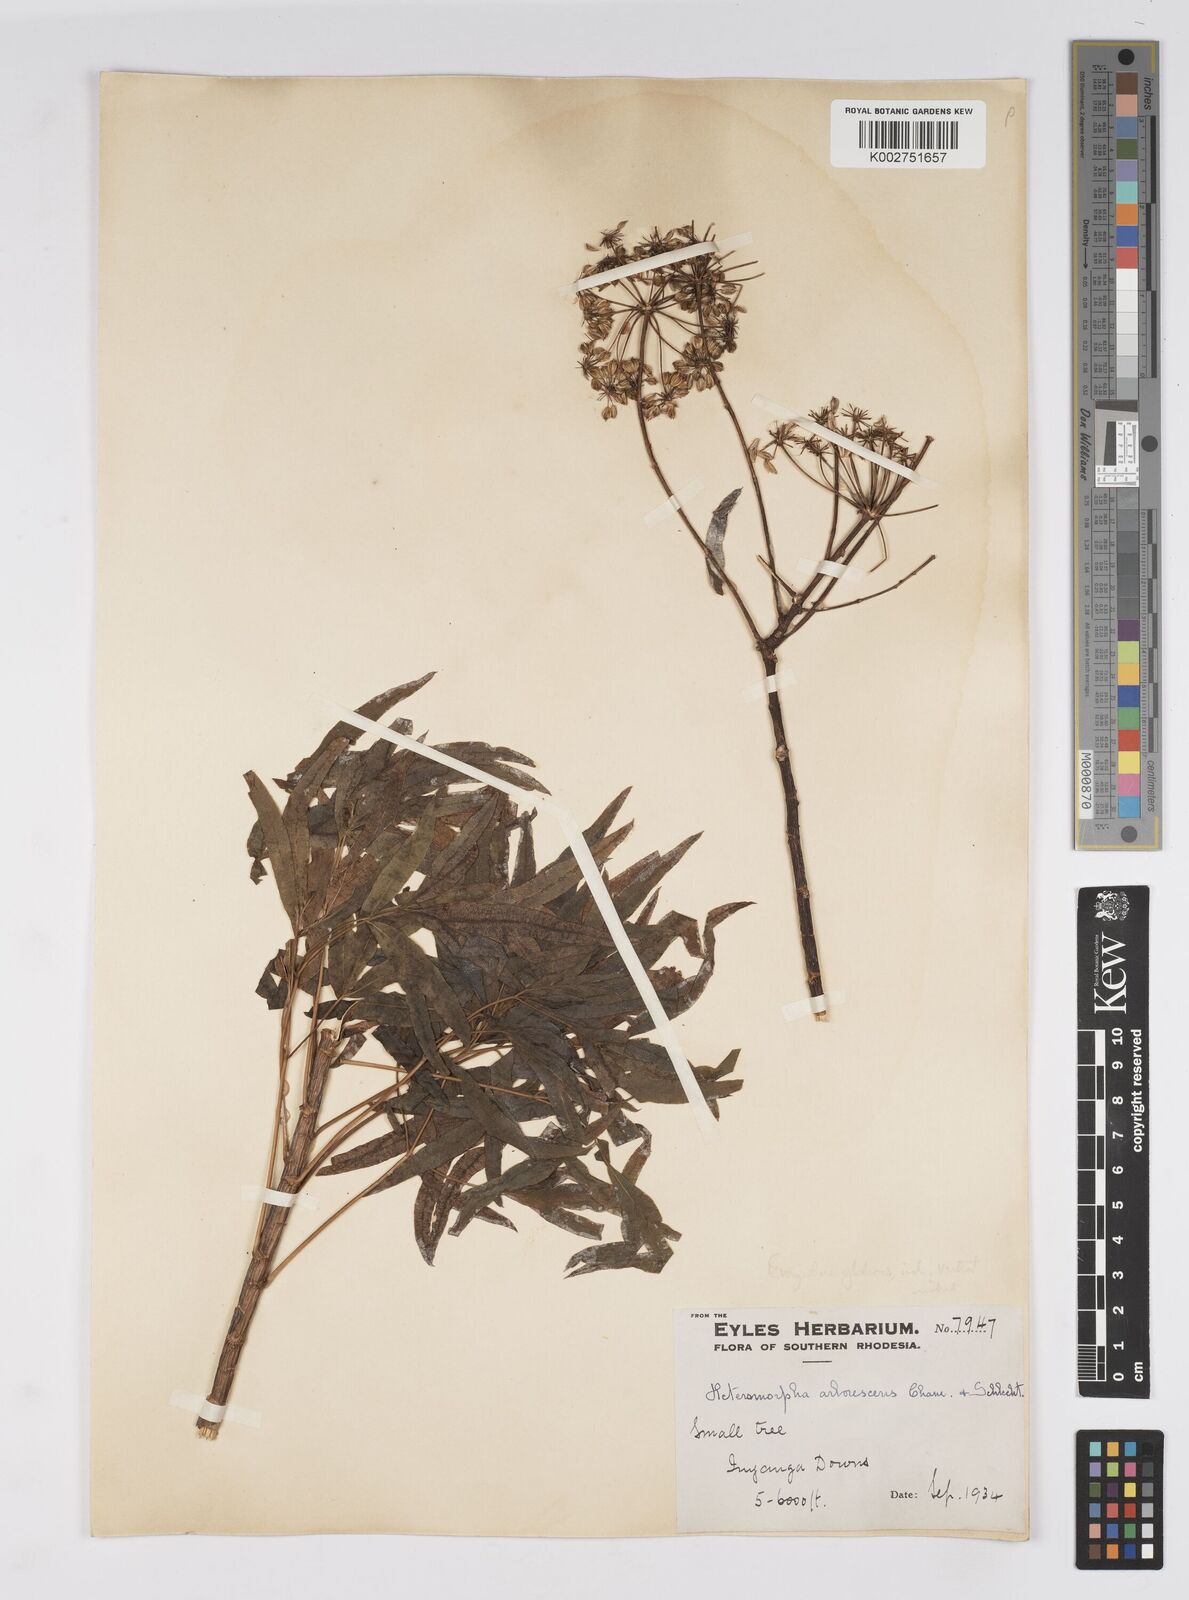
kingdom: Plantae
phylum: Tracheophyta
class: Magnoliopsida
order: Apiales
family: Apiaceae
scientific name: Apiaceae
